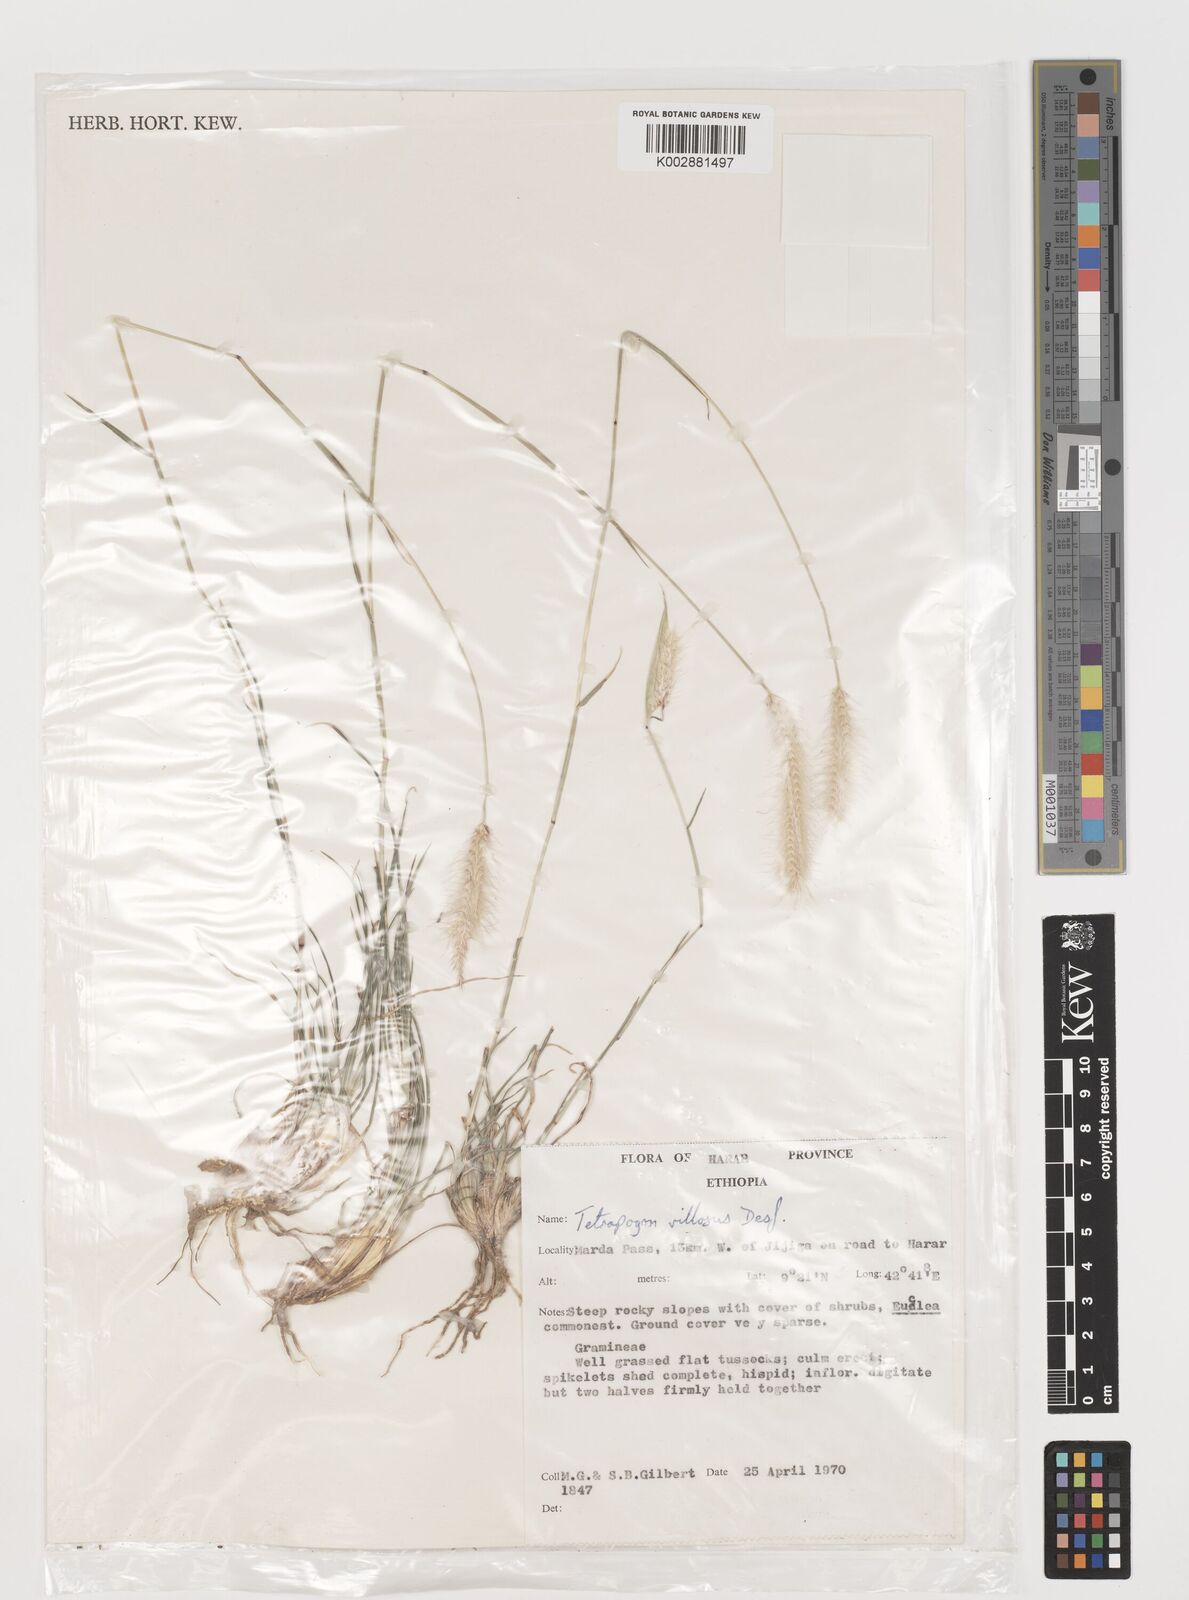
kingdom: Plantae
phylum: Tracheophyta
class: Liliopsida
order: Poales
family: Poaceae
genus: Tetrapogon
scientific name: Tetrapogon villosus
